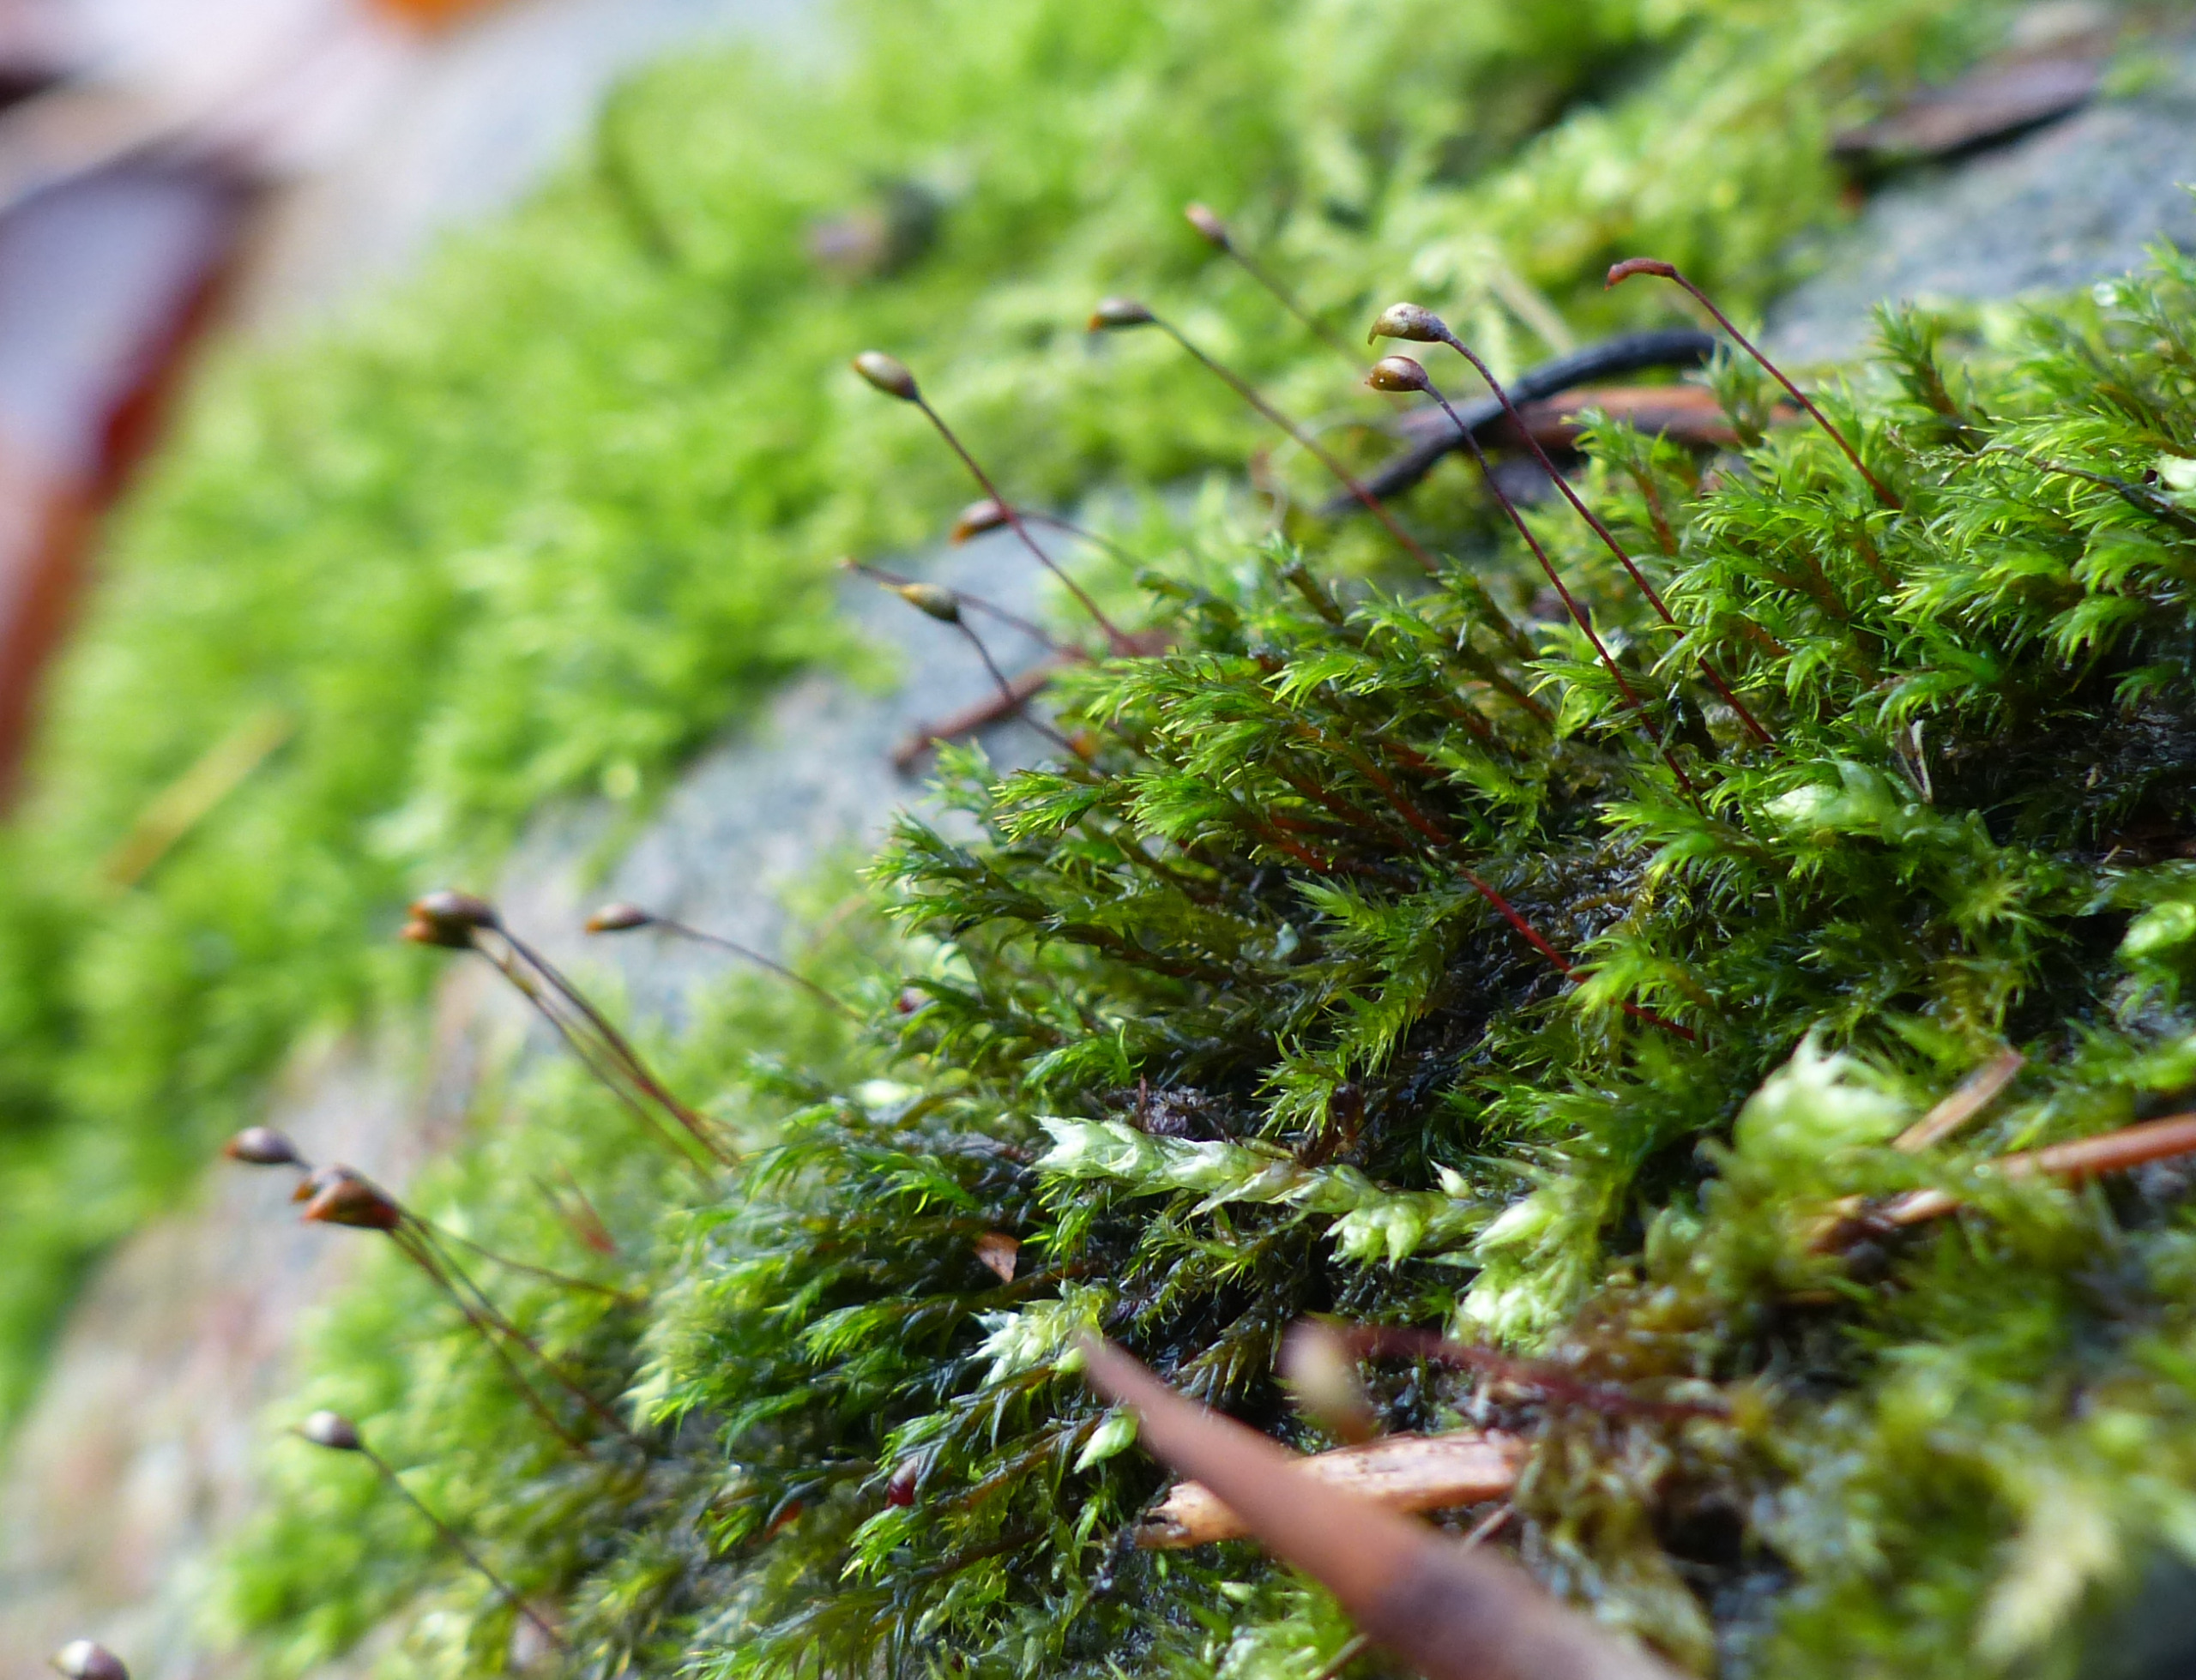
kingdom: Plantae
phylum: Bryophyta
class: Bryopsida
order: Grimmiales
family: Grimmiaceae
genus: Schistidium
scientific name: Schistidium apocarpum
